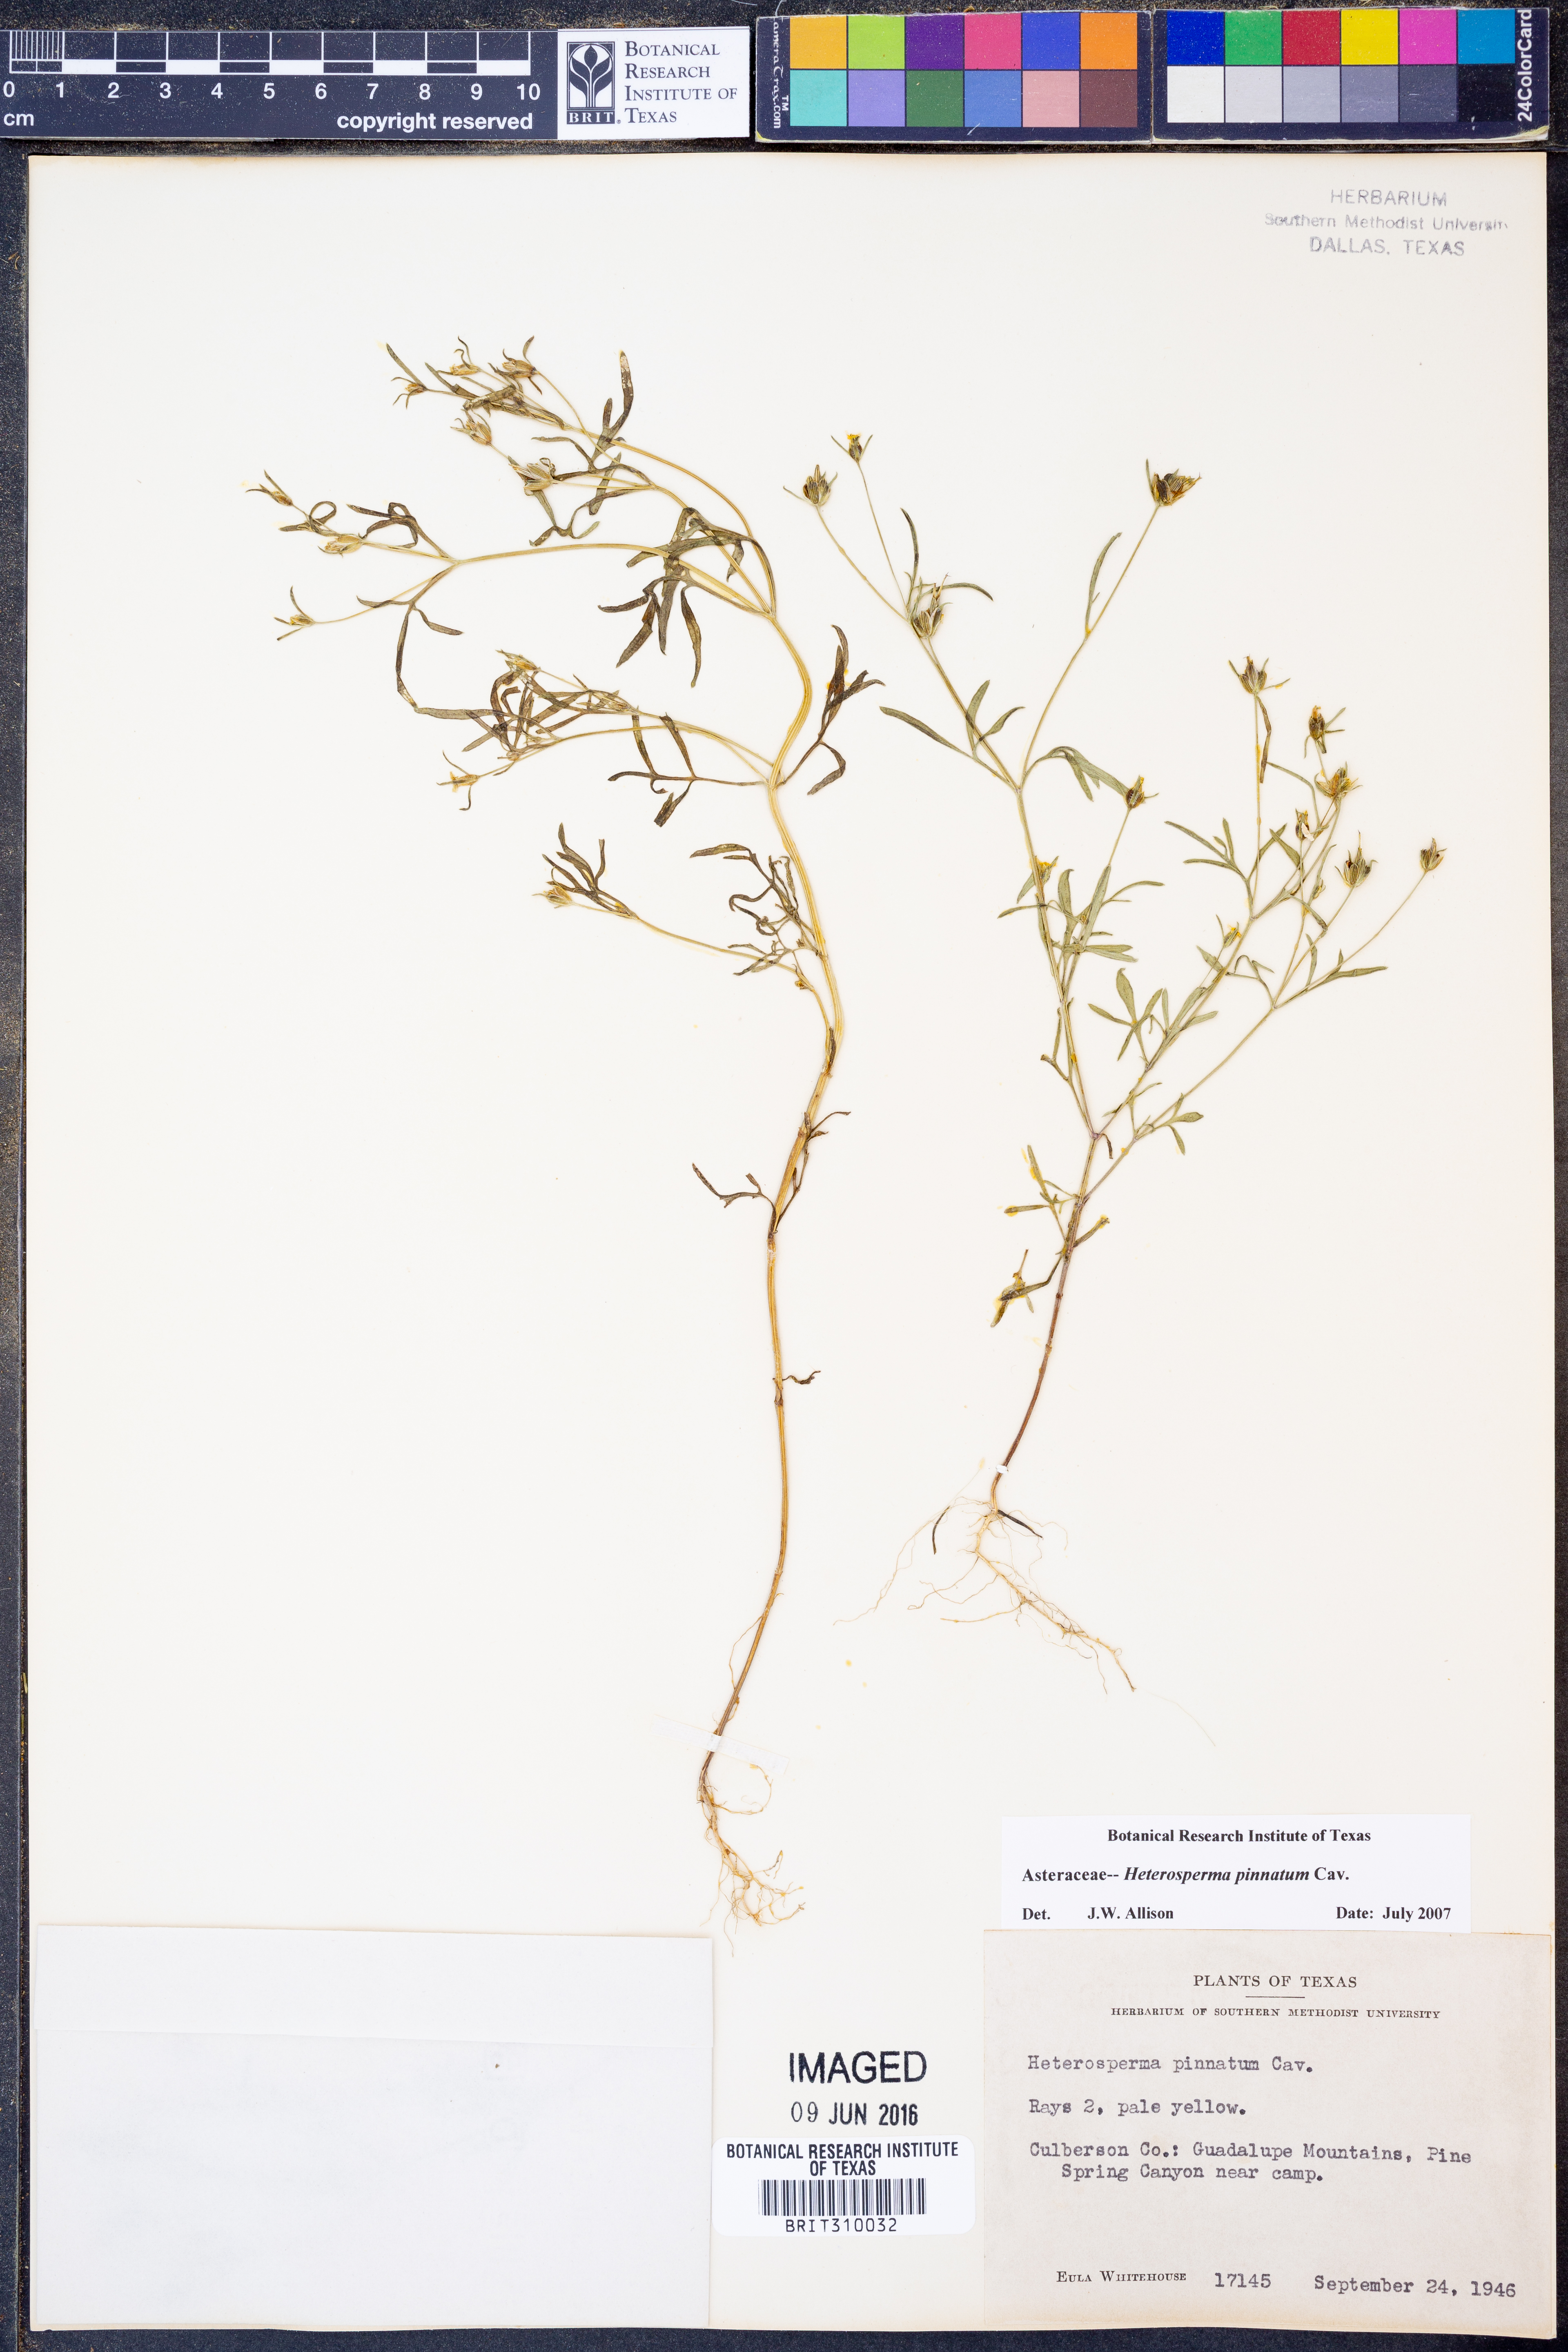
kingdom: Plantae
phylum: Tracheophyta
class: Magnoliopsida
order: Asterales
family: Asteraceae
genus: Heterosperma
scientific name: Heterosperma pinnatum
